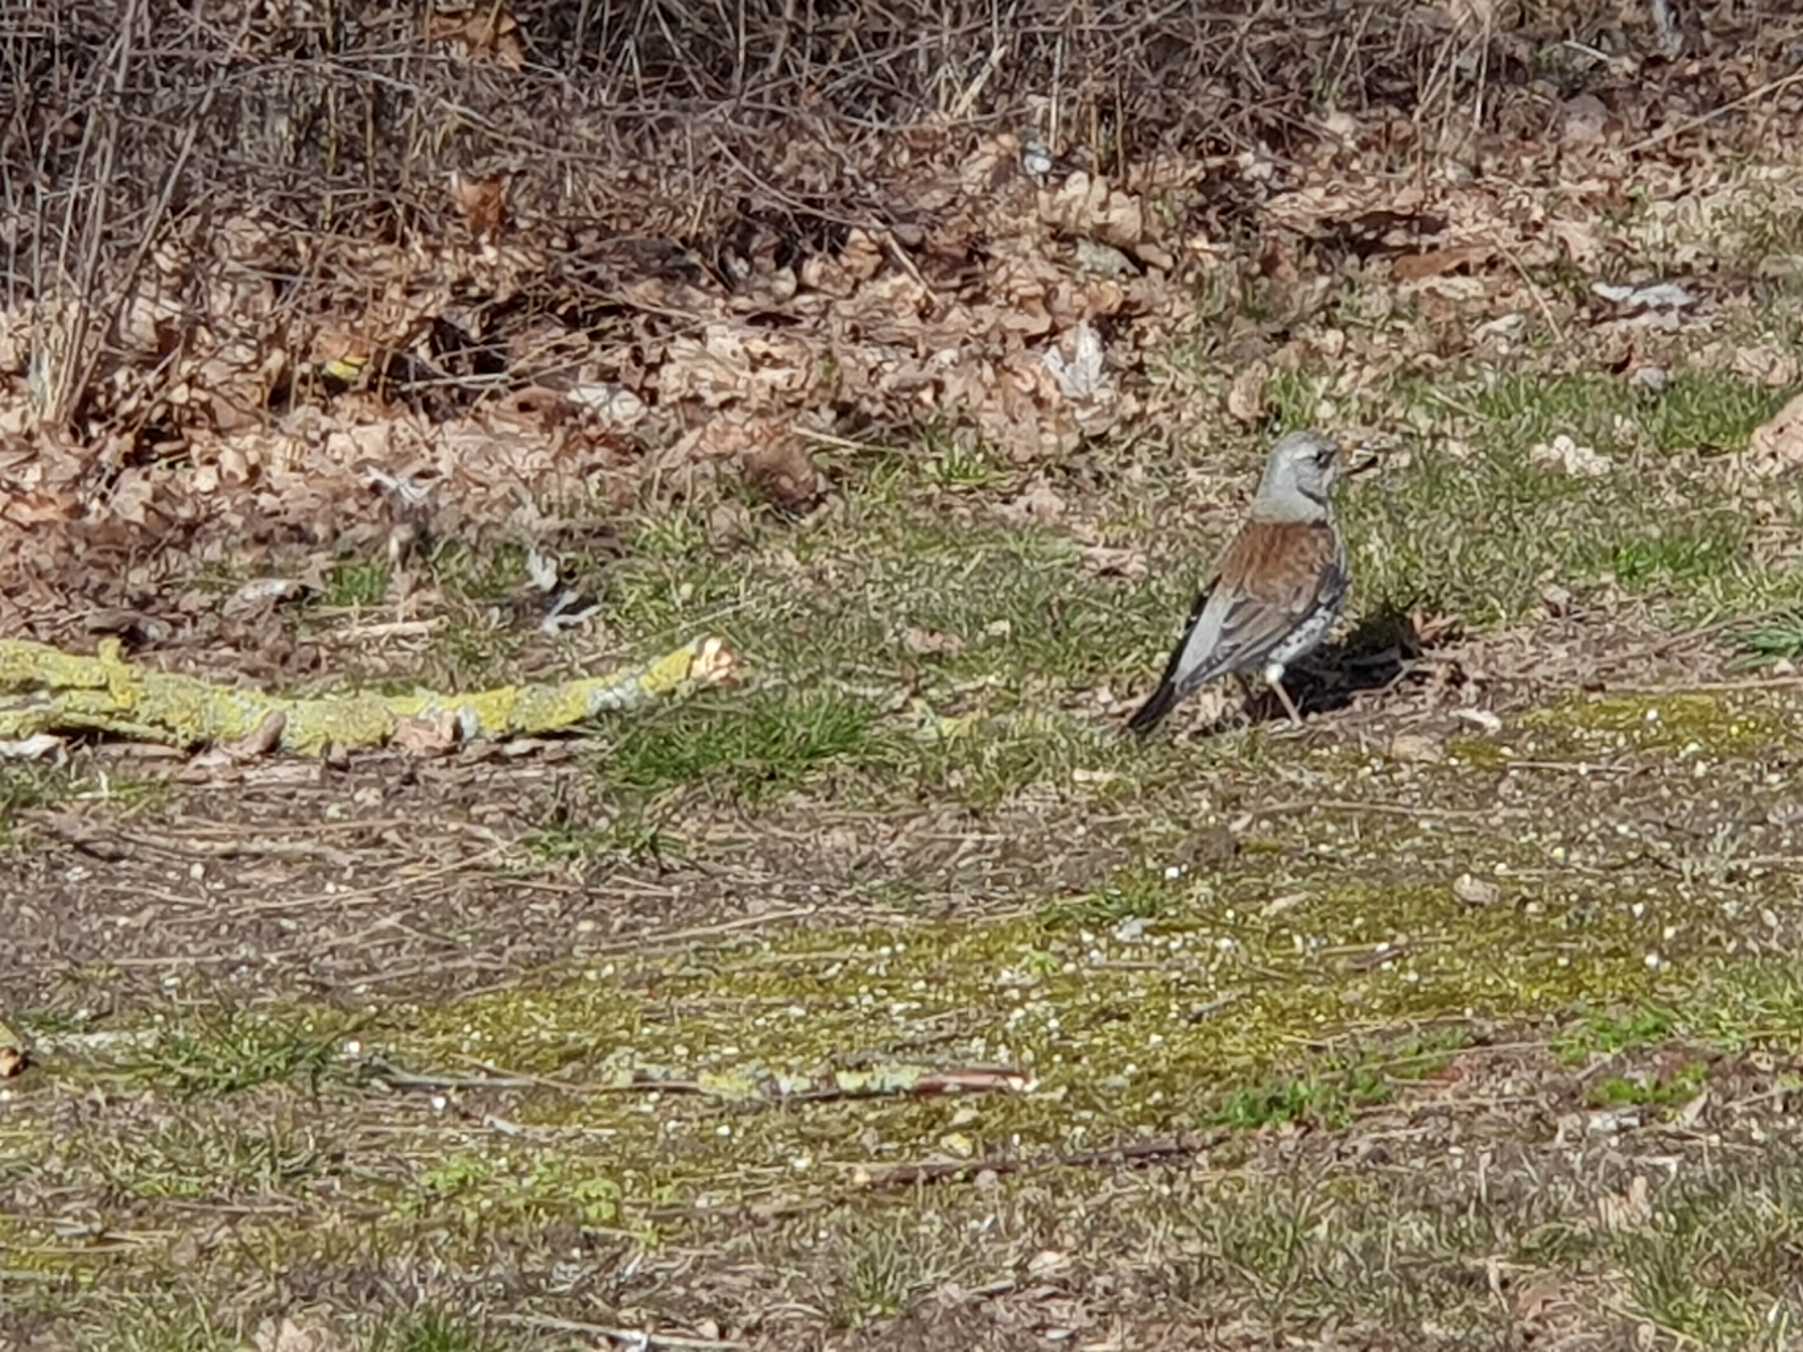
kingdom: Animalia
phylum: Chordata
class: Aves
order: Passeriformes
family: Turdidae
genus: Turdus
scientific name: Turdus pilaris
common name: Sjagger
